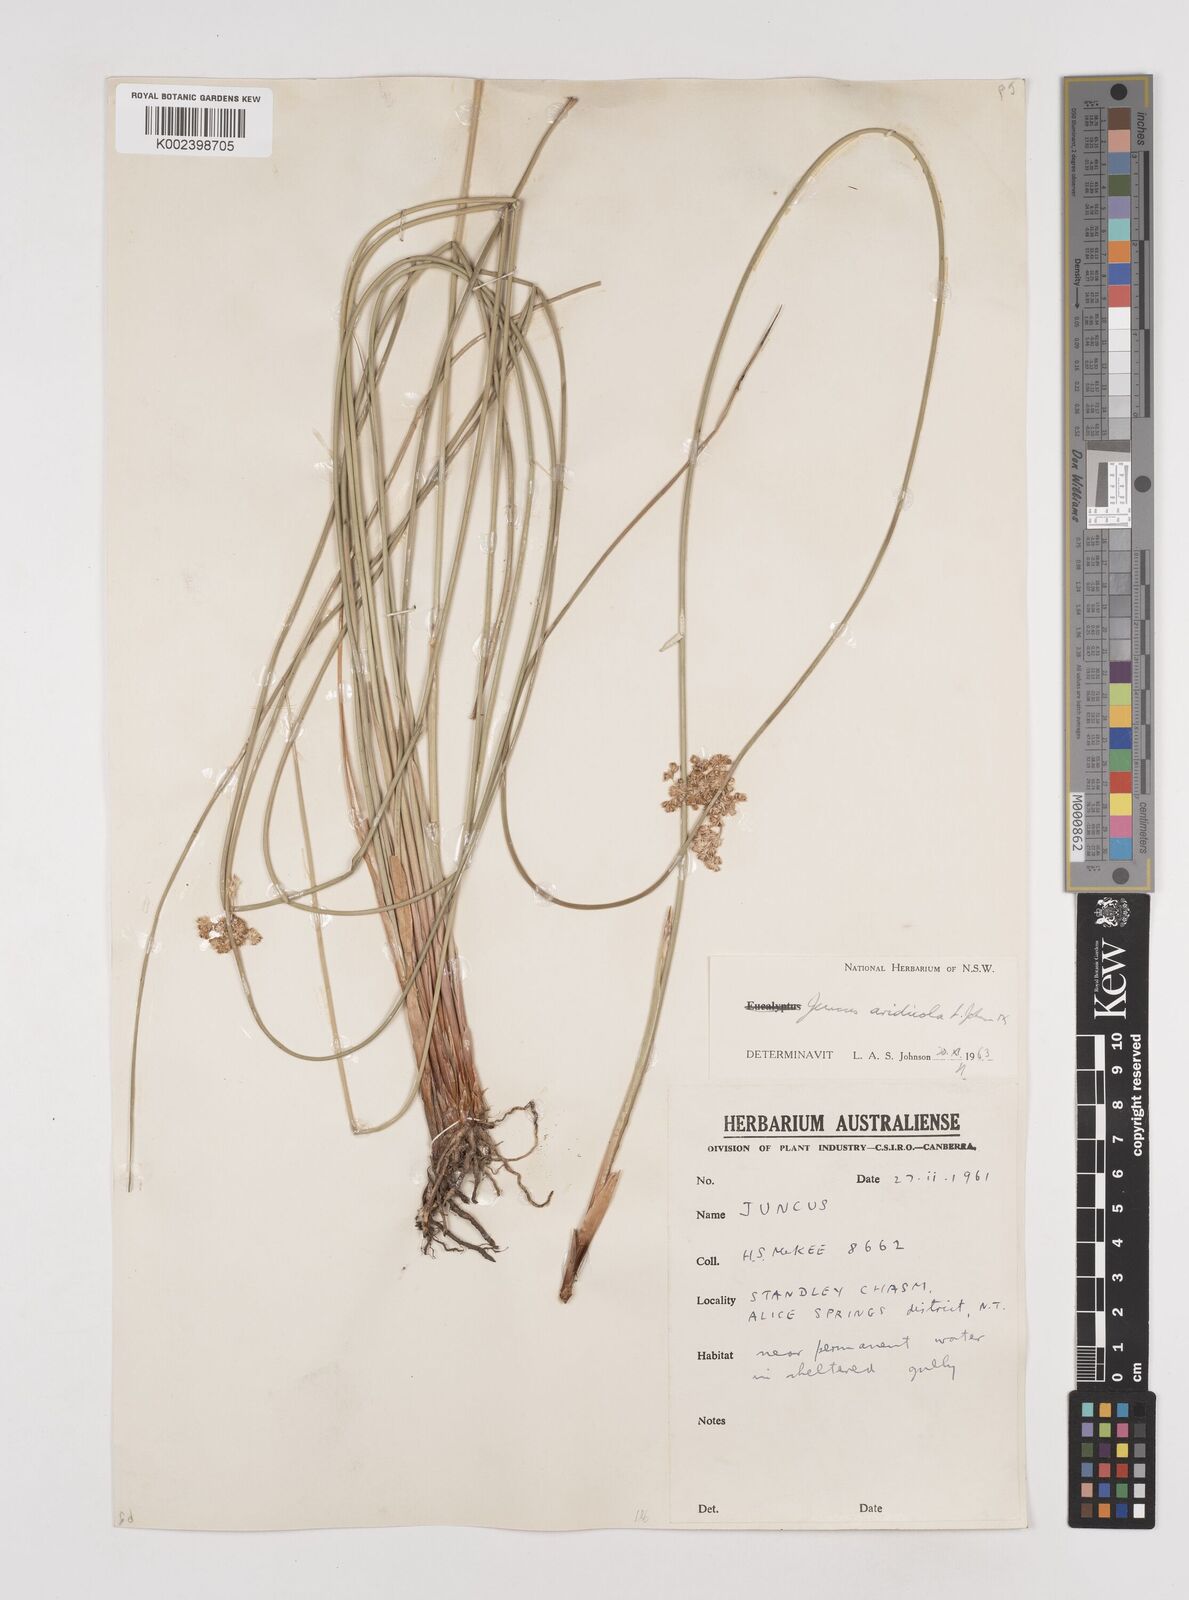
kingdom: Plantae
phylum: Tracheophyta
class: Liliopsida
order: Poales
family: Juncaceae
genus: Juncus
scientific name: Juncus aridicola
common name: Tussock rush
